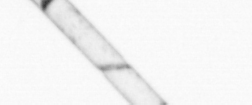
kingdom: Chromista
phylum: Ochrophyta
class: Bacillariophyceae
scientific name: Bacillariophyceae
